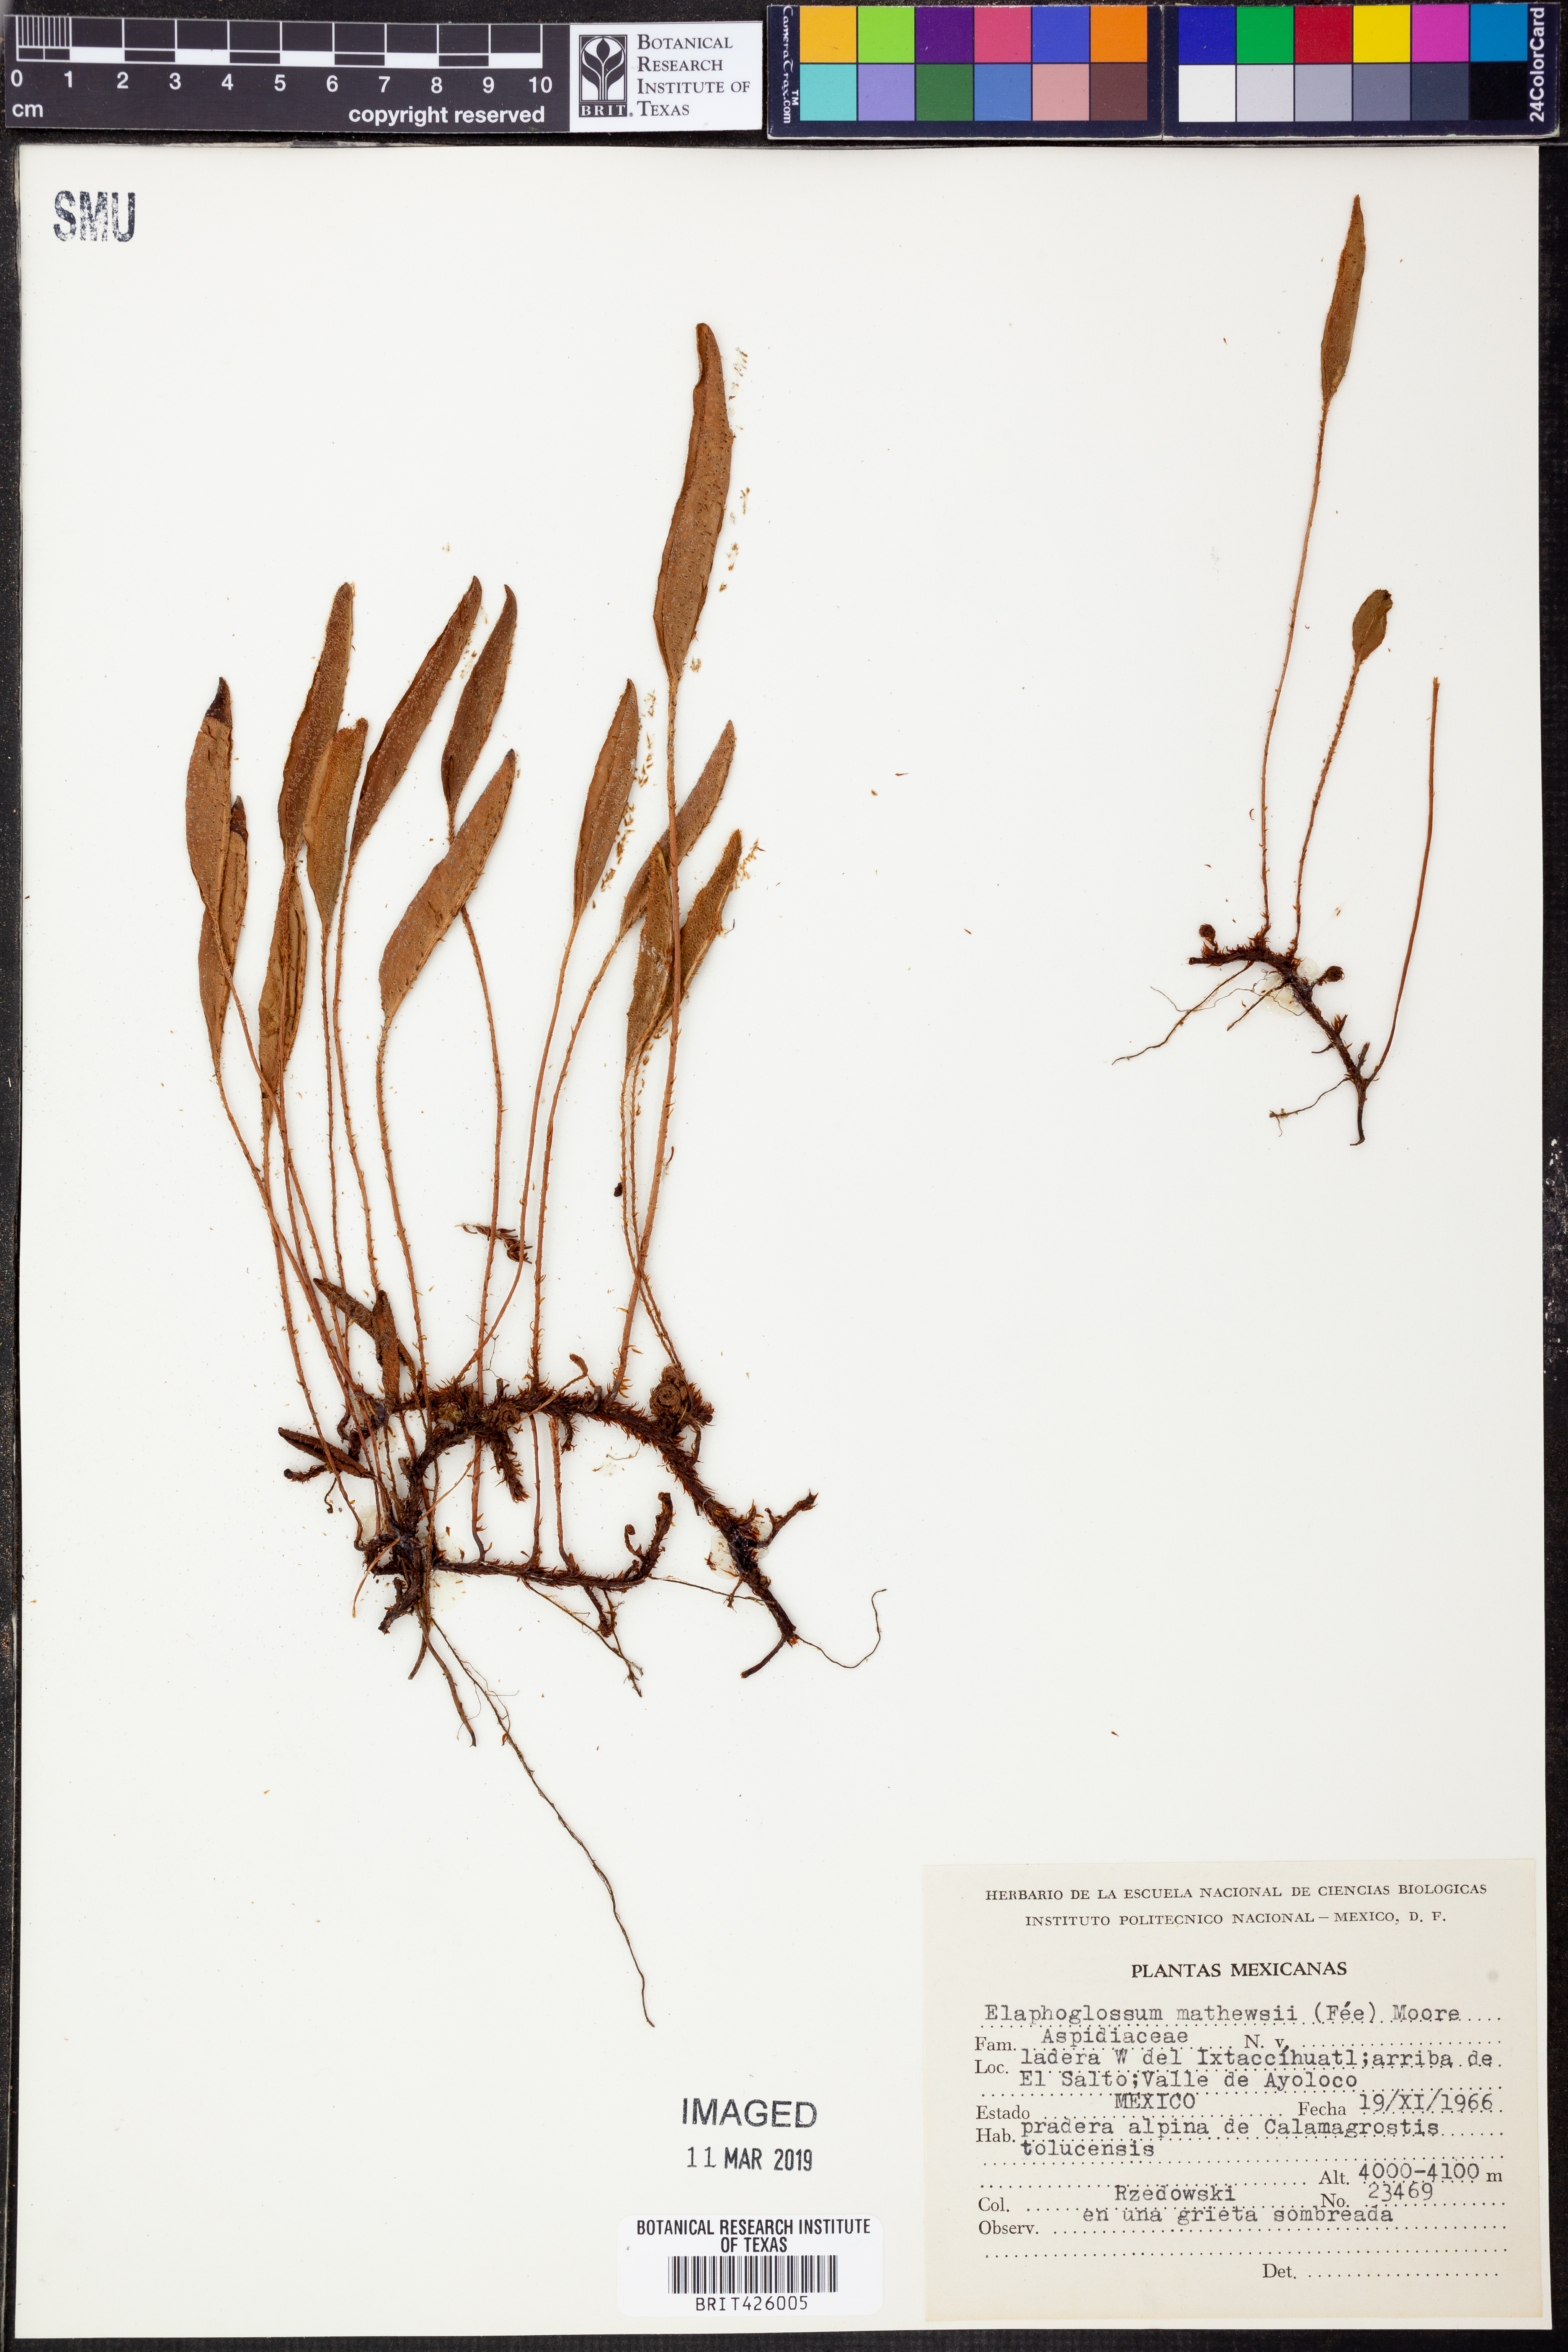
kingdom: Plantae
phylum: Tracheophyta
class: Polypodiopsida
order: Polypodiales
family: Dryopteridaceae
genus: Elaphoglossum
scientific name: Elaphoglossum mathewsii
